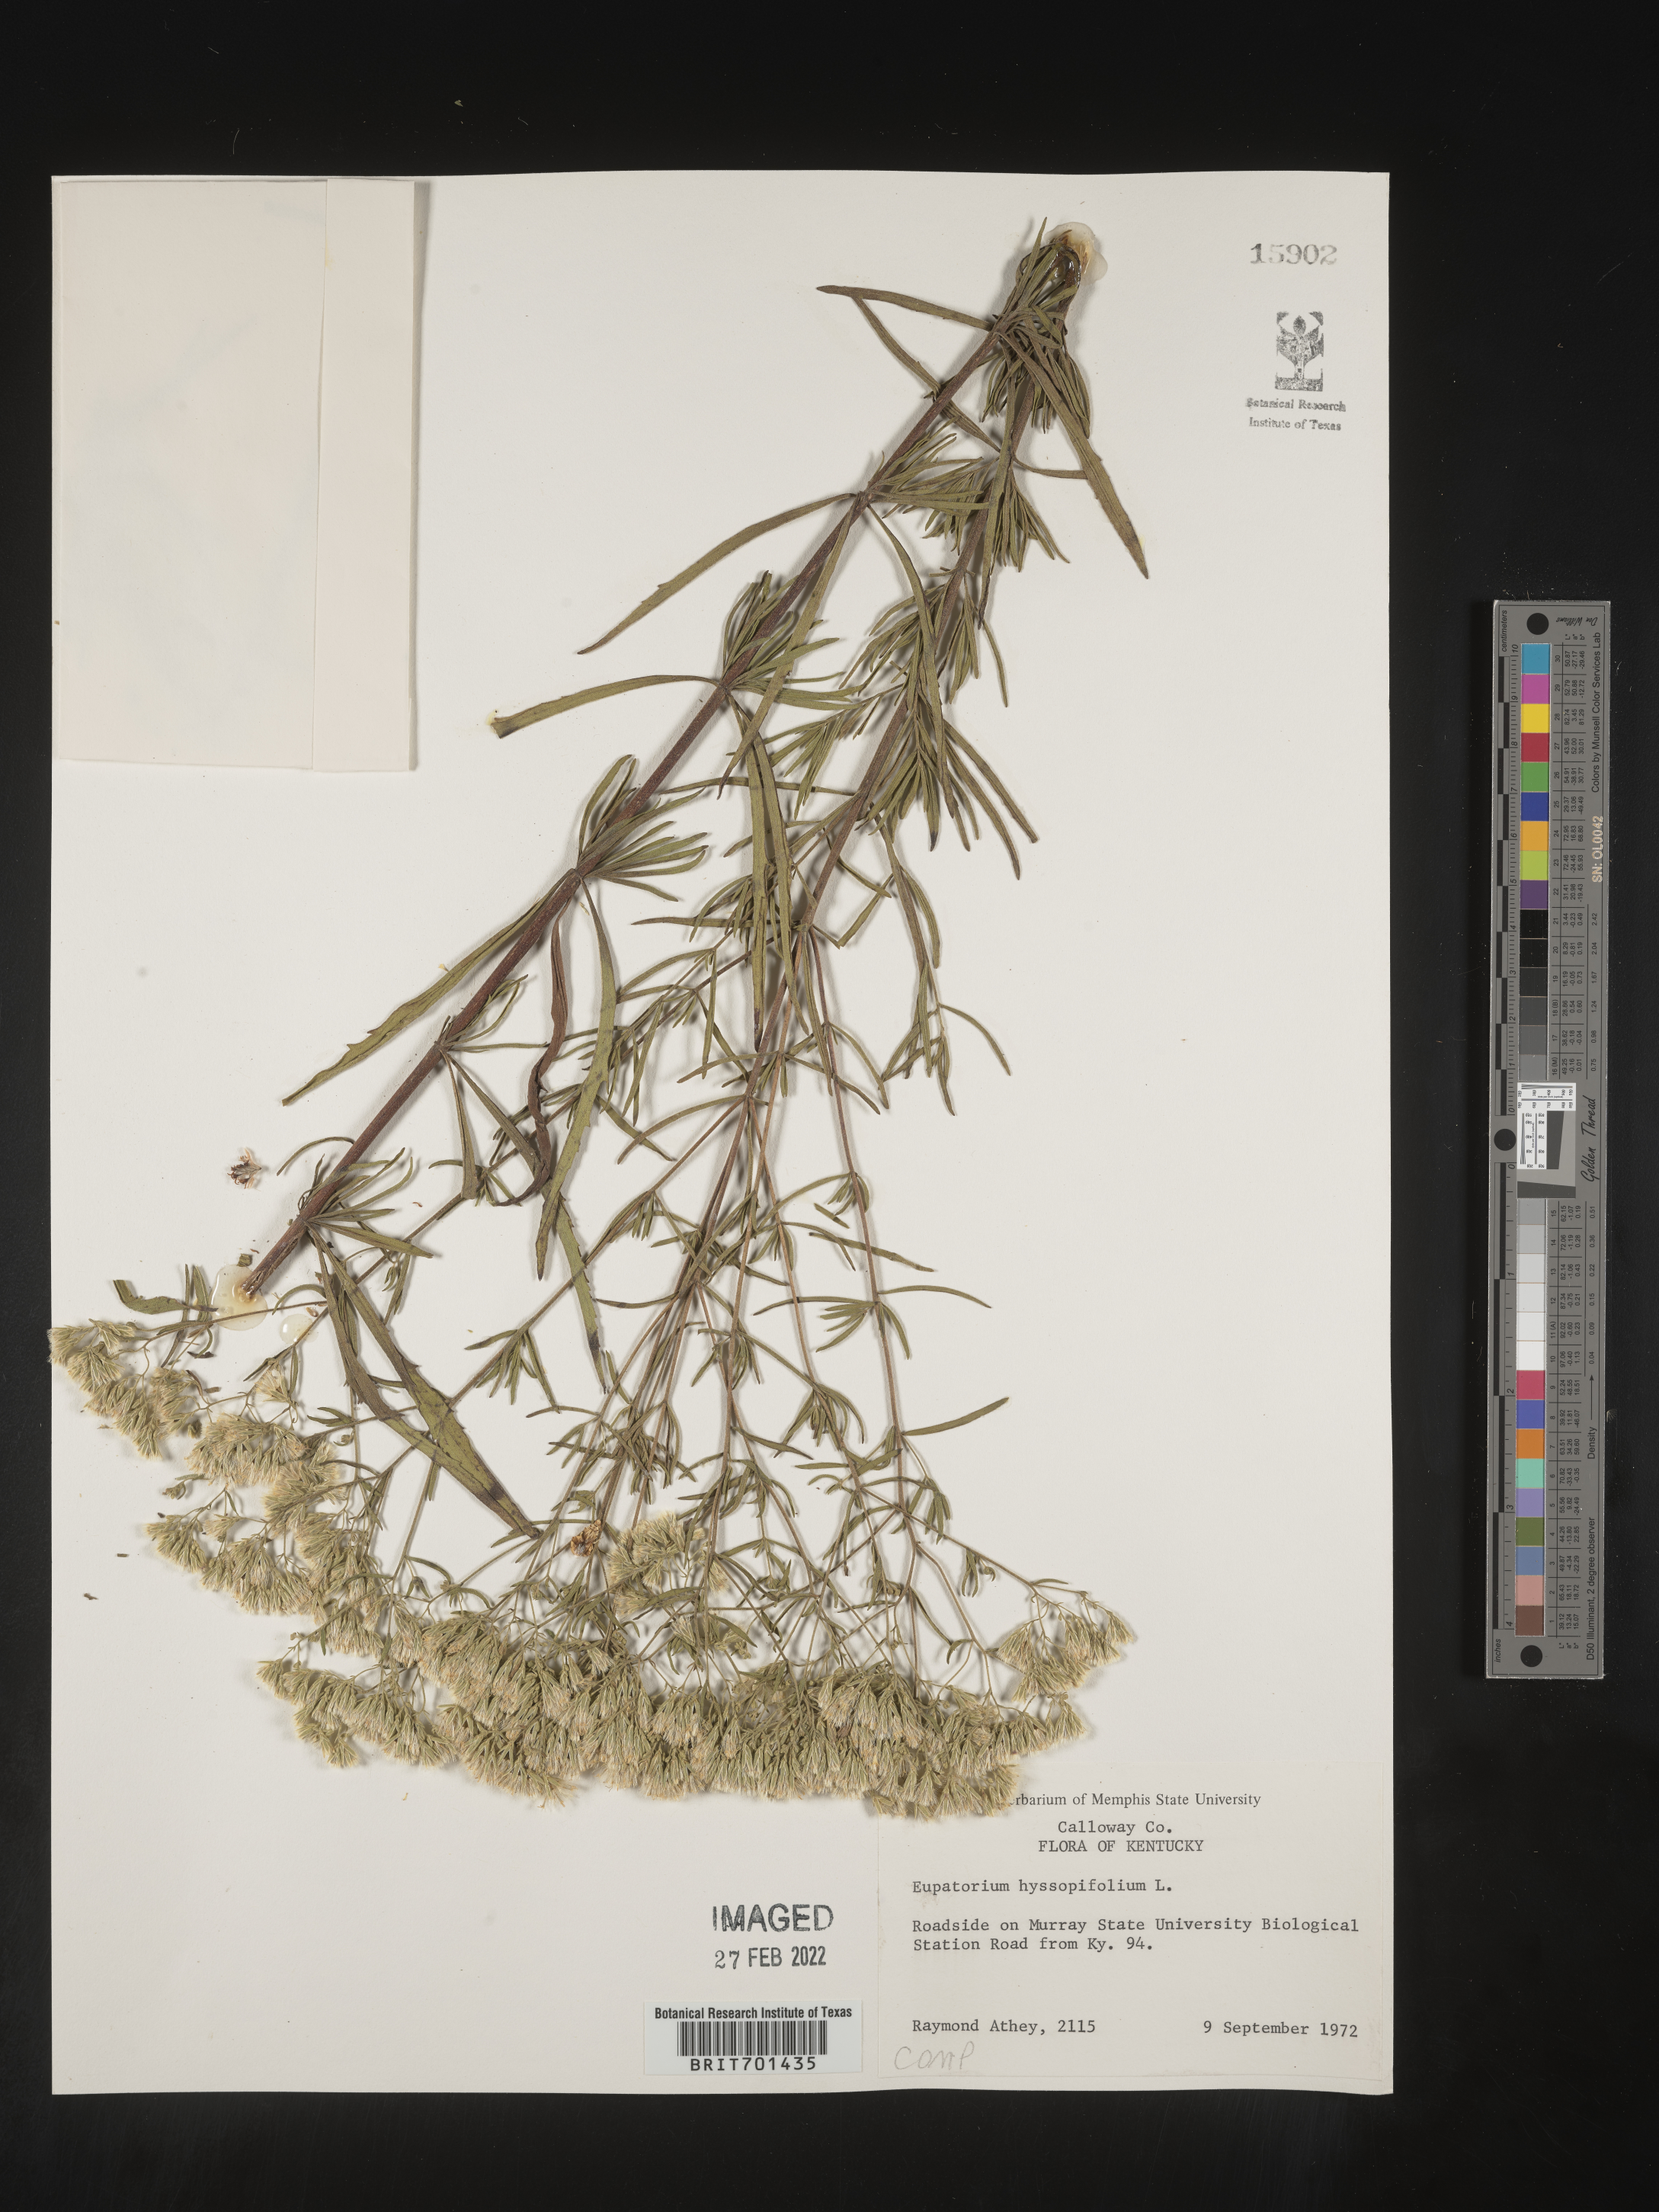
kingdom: Plantae
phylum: Tracheophyta
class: Magnoliopsida
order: Asterales
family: Asteraceae
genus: Eupatorium
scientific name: Eupatorium hyssopifolium
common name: Hyssop-leaf thoroughwort
